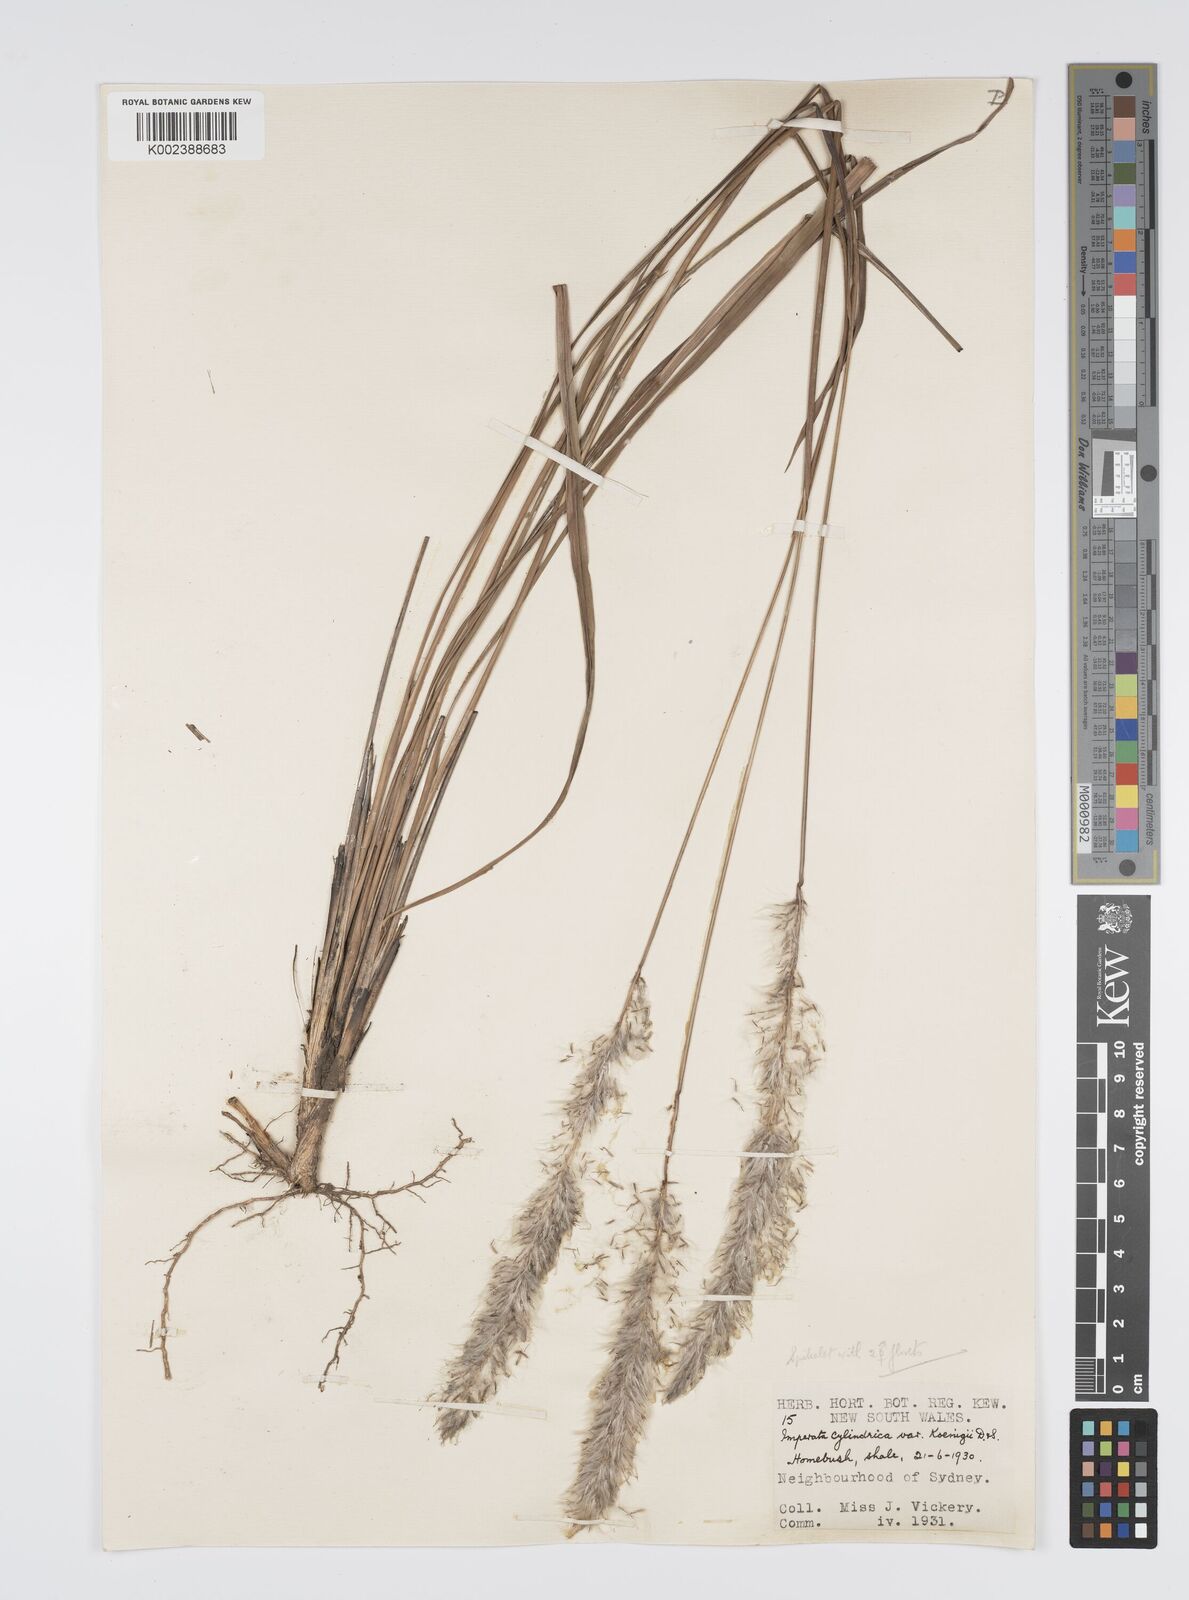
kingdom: Plantae
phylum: Tracheophyta
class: Liliopsida
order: Poales
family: Poaceae
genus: Imperata
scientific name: Imperata cylindrica
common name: Cogongrass
